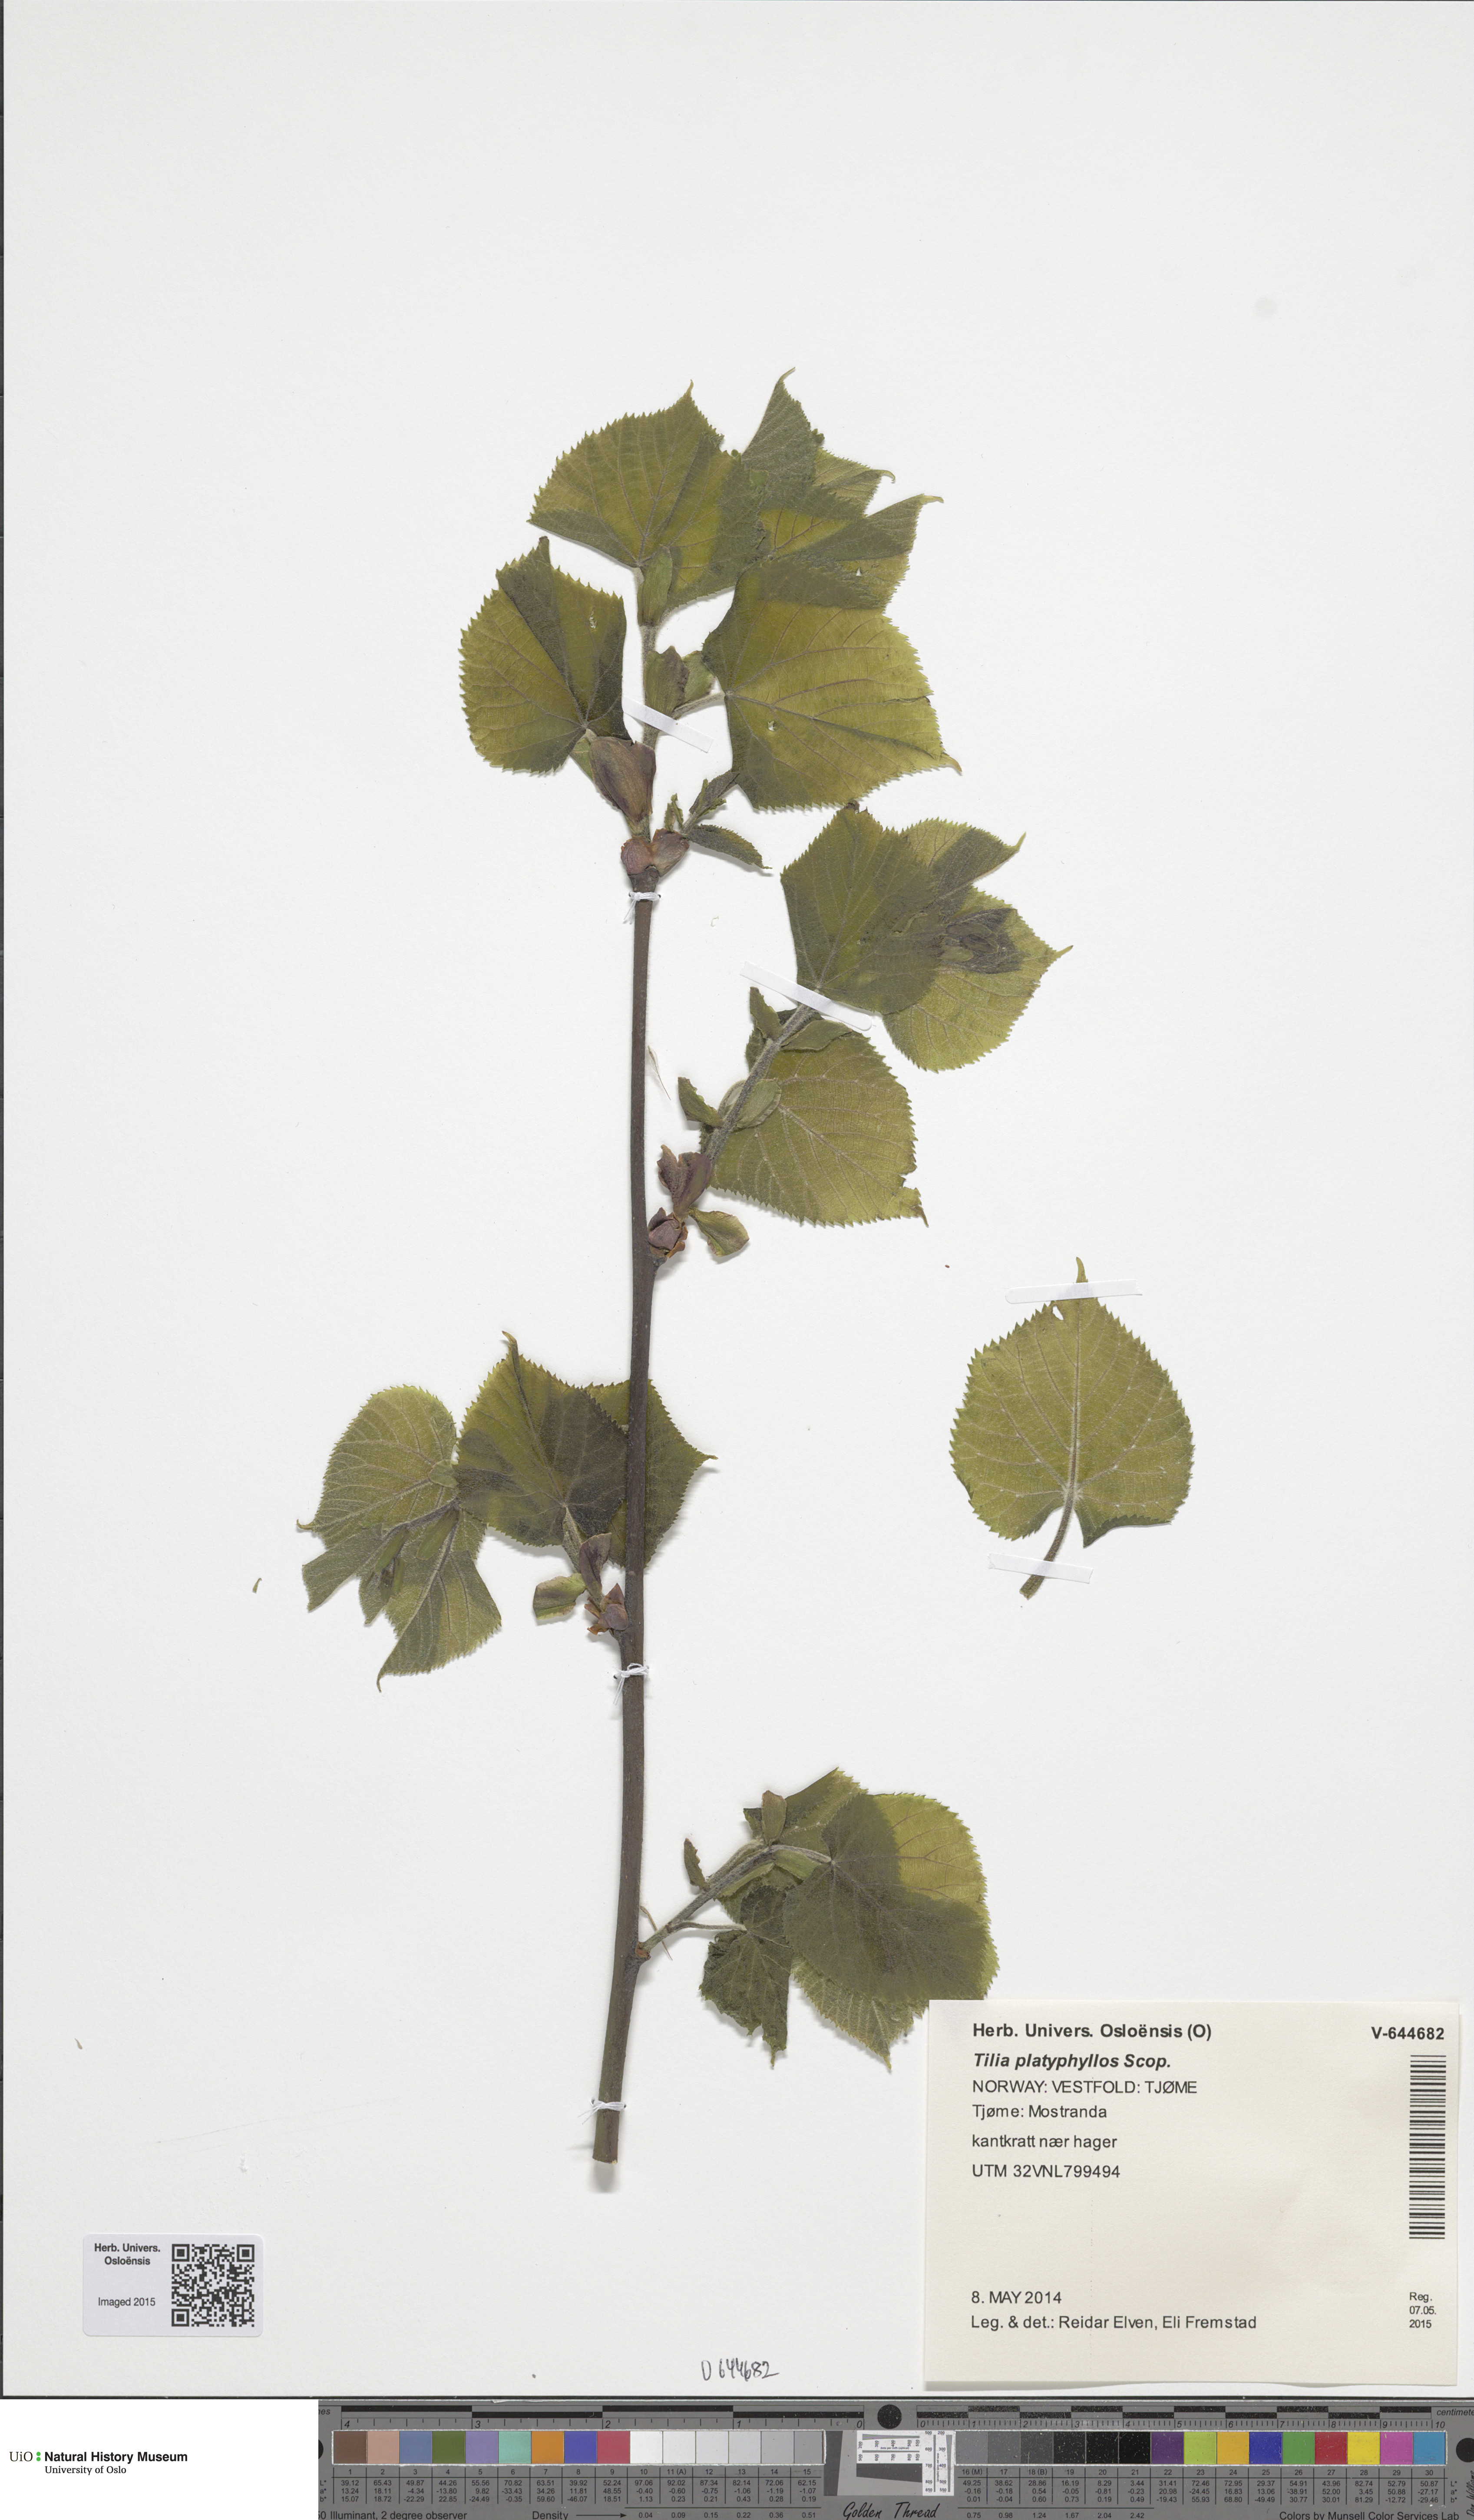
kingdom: Plantae
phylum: Tracheophyta
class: Magnoliopsida
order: Malvales
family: Malvaceae
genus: Tilia
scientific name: Tilia platyphyllos
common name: Large-leaved lime
